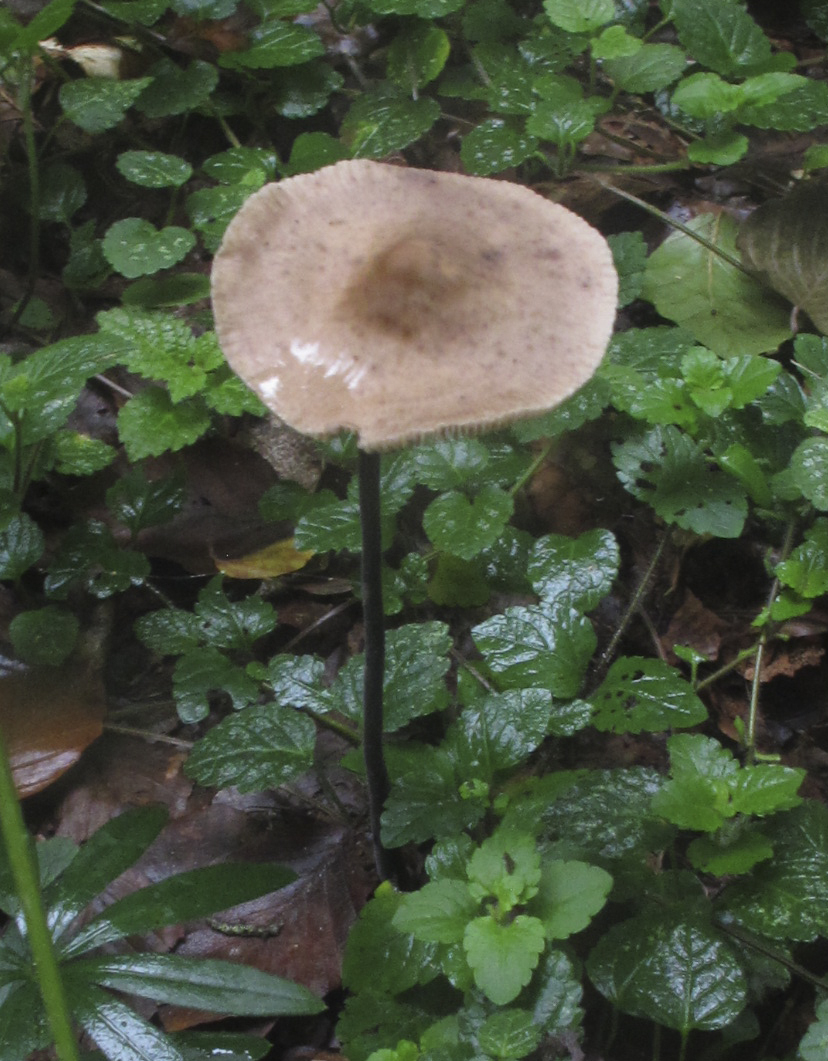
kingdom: Fungi
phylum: Basidiomycota
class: Agaricomycetes
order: Agaricales
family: Omphalotaceae
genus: Mycetinis
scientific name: Mycetinis alliaceus
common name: stor løghat
